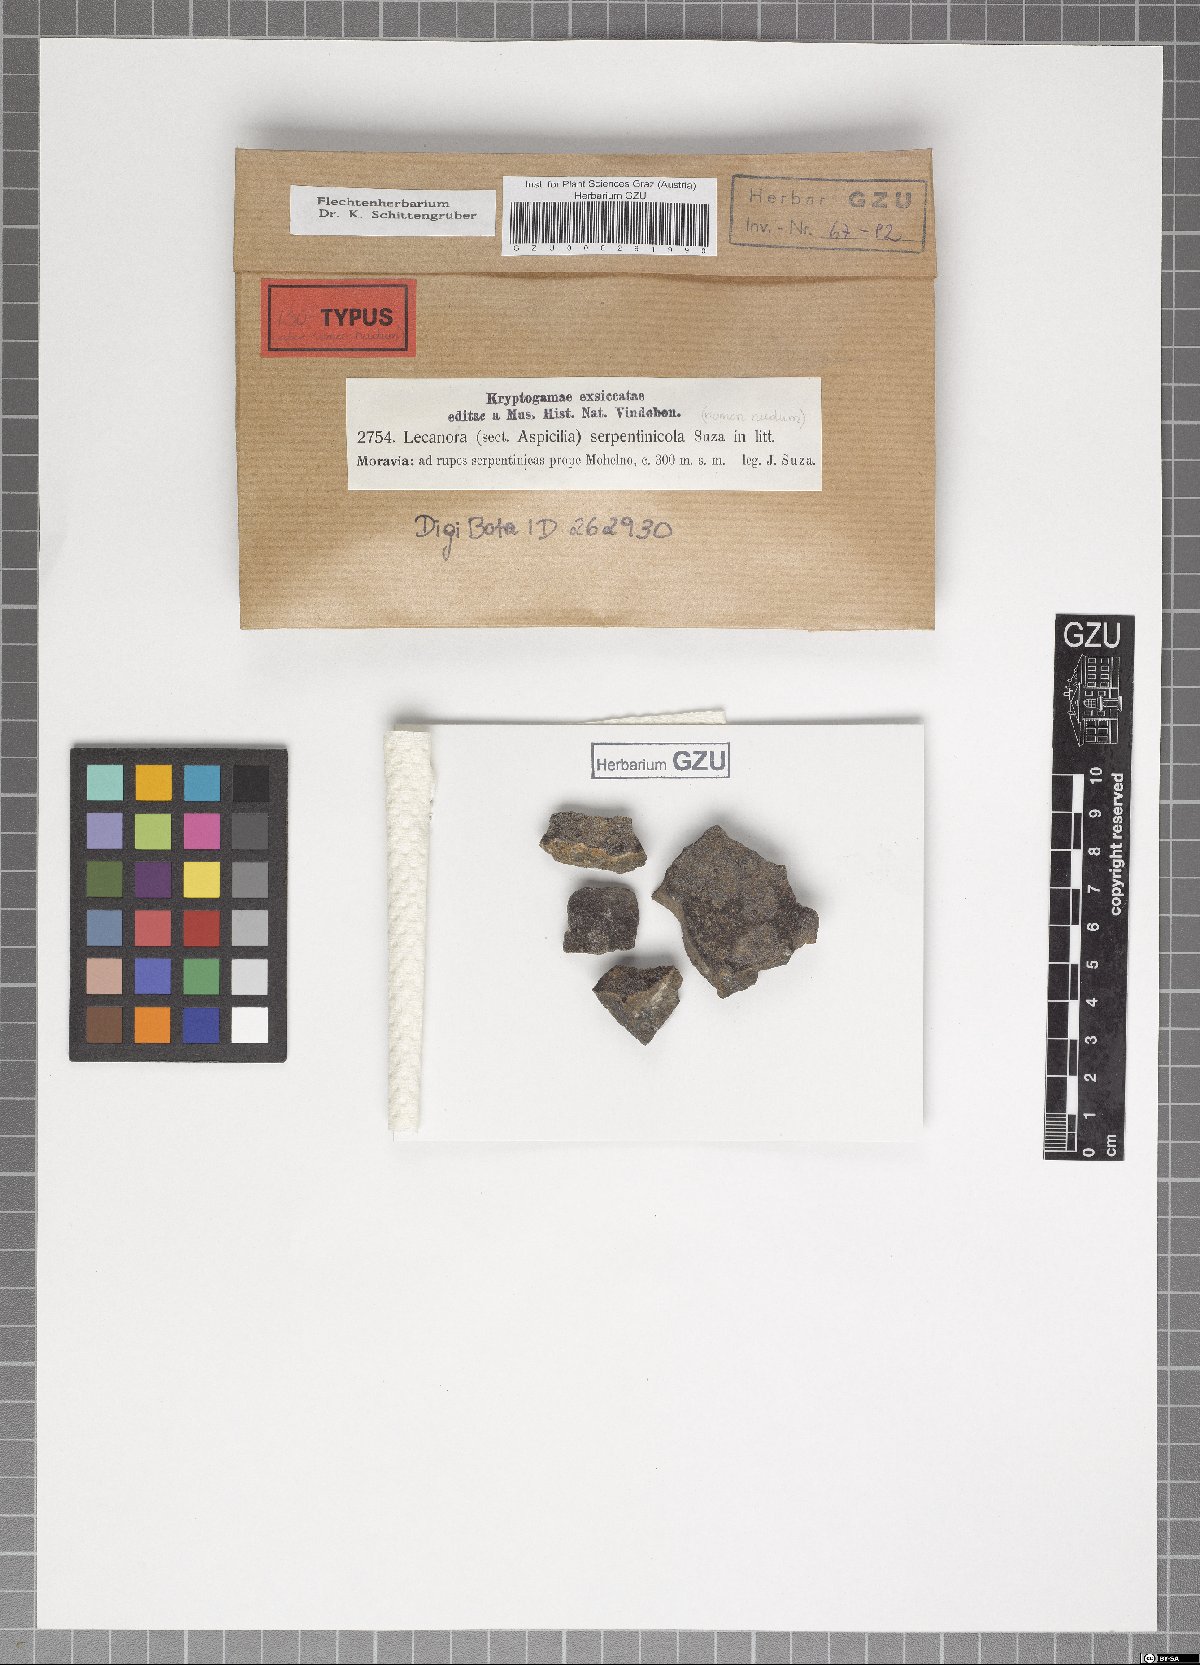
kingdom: Fungi
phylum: Ascomycota
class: Lecanoromycetes
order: Lecanorales
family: Lecanoraceae
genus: Lecanora
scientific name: Lecanora
